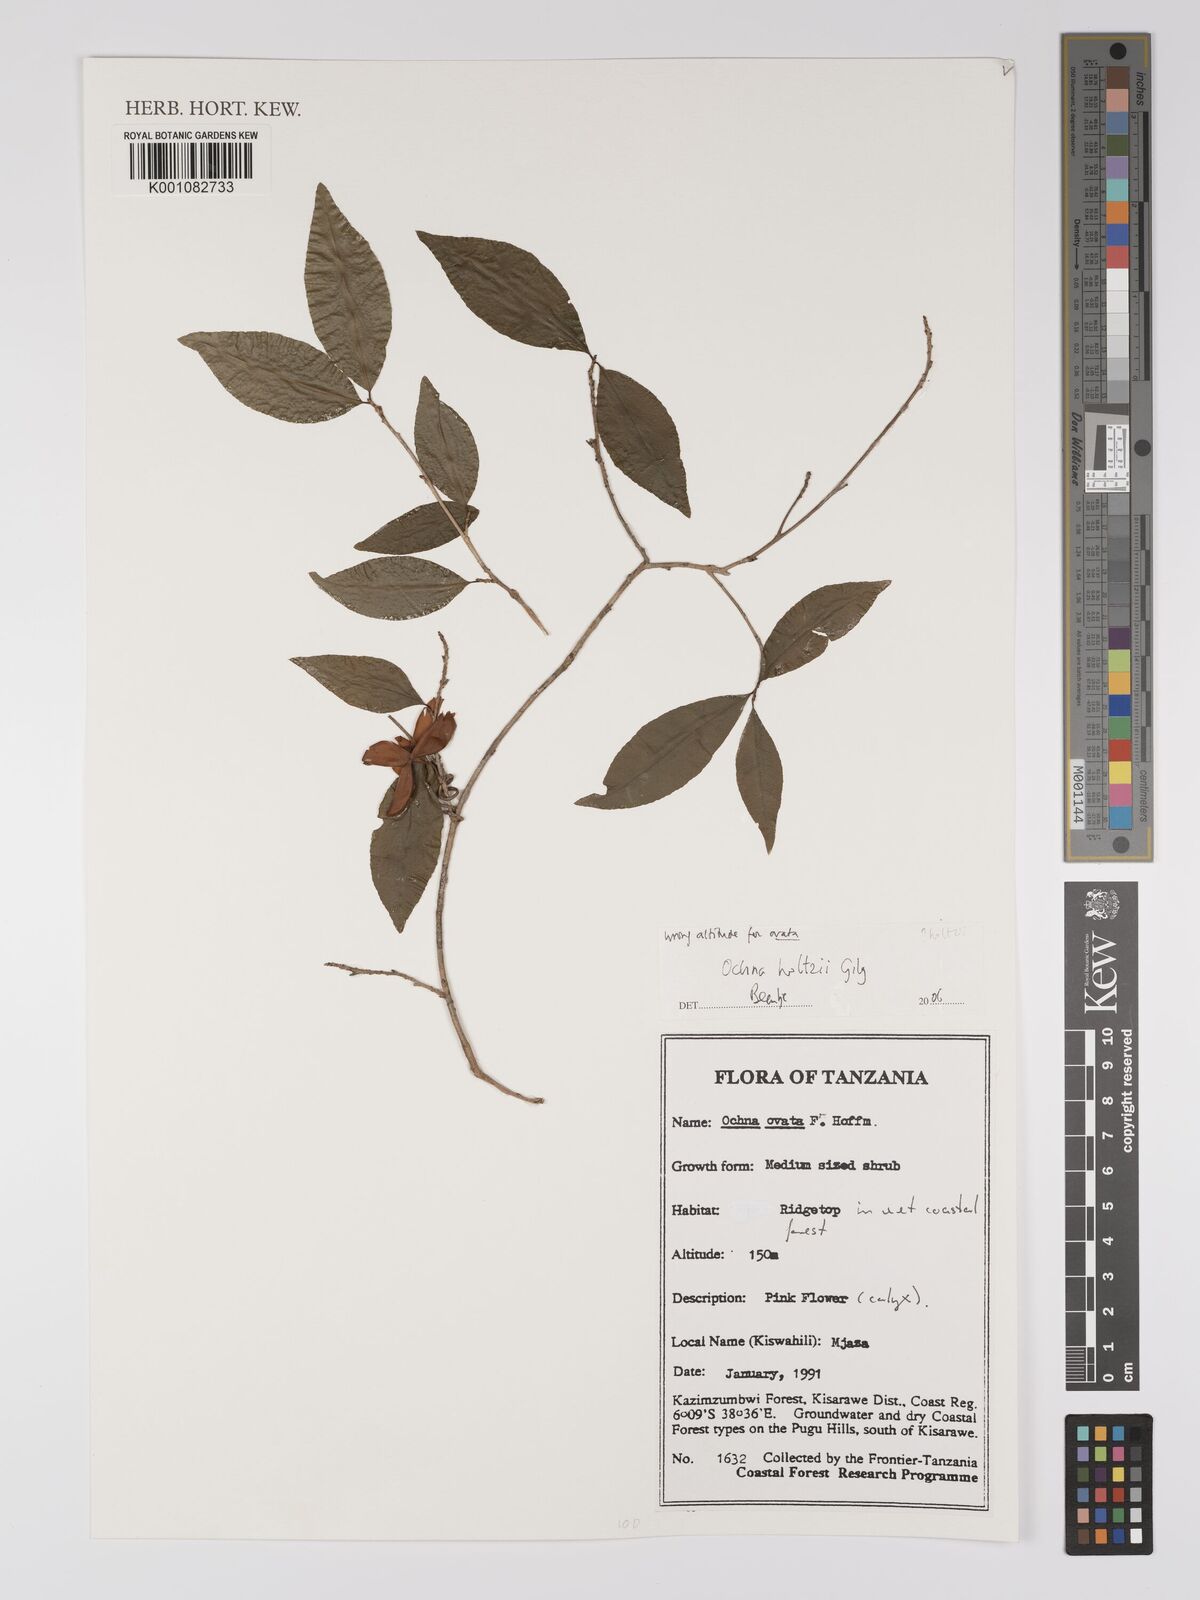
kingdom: Plantae
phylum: Tracheophyta
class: Magnoliopsida
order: Malpighiales
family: Ochnaceae
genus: Ochna
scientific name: Ochna holtzii
